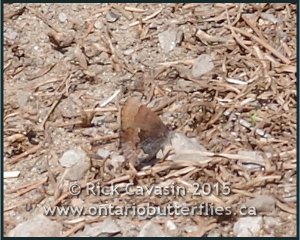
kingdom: Animalia
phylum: Arthropoda
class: Insecta
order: Lepidoptera
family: Lycaenidae
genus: Incisalia
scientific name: Incisalia henrici
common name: Henry's Elfin
